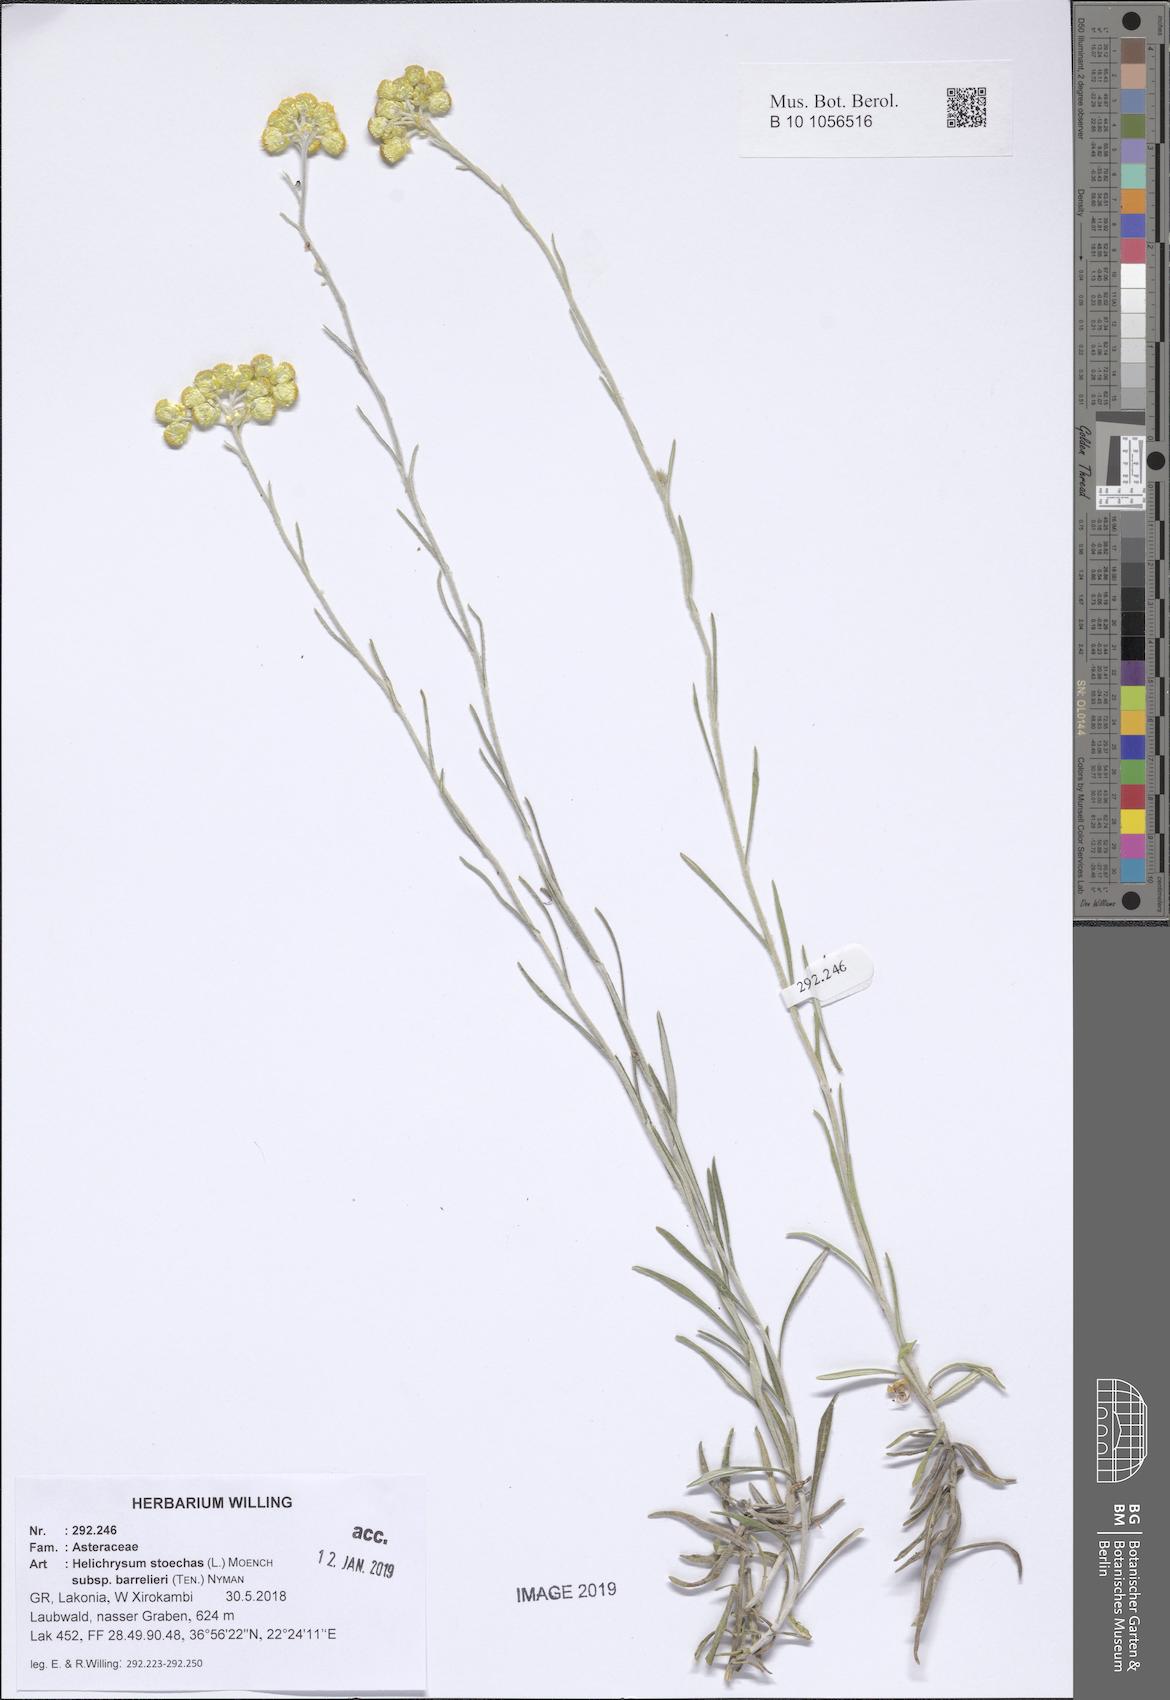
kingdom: Plantae
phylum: Tracheophyta
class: Magnoliopsida
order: Asterales
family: Asteraceae
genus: Helichrysum
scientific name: Helichrysum stoechas
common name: Goldilocks
